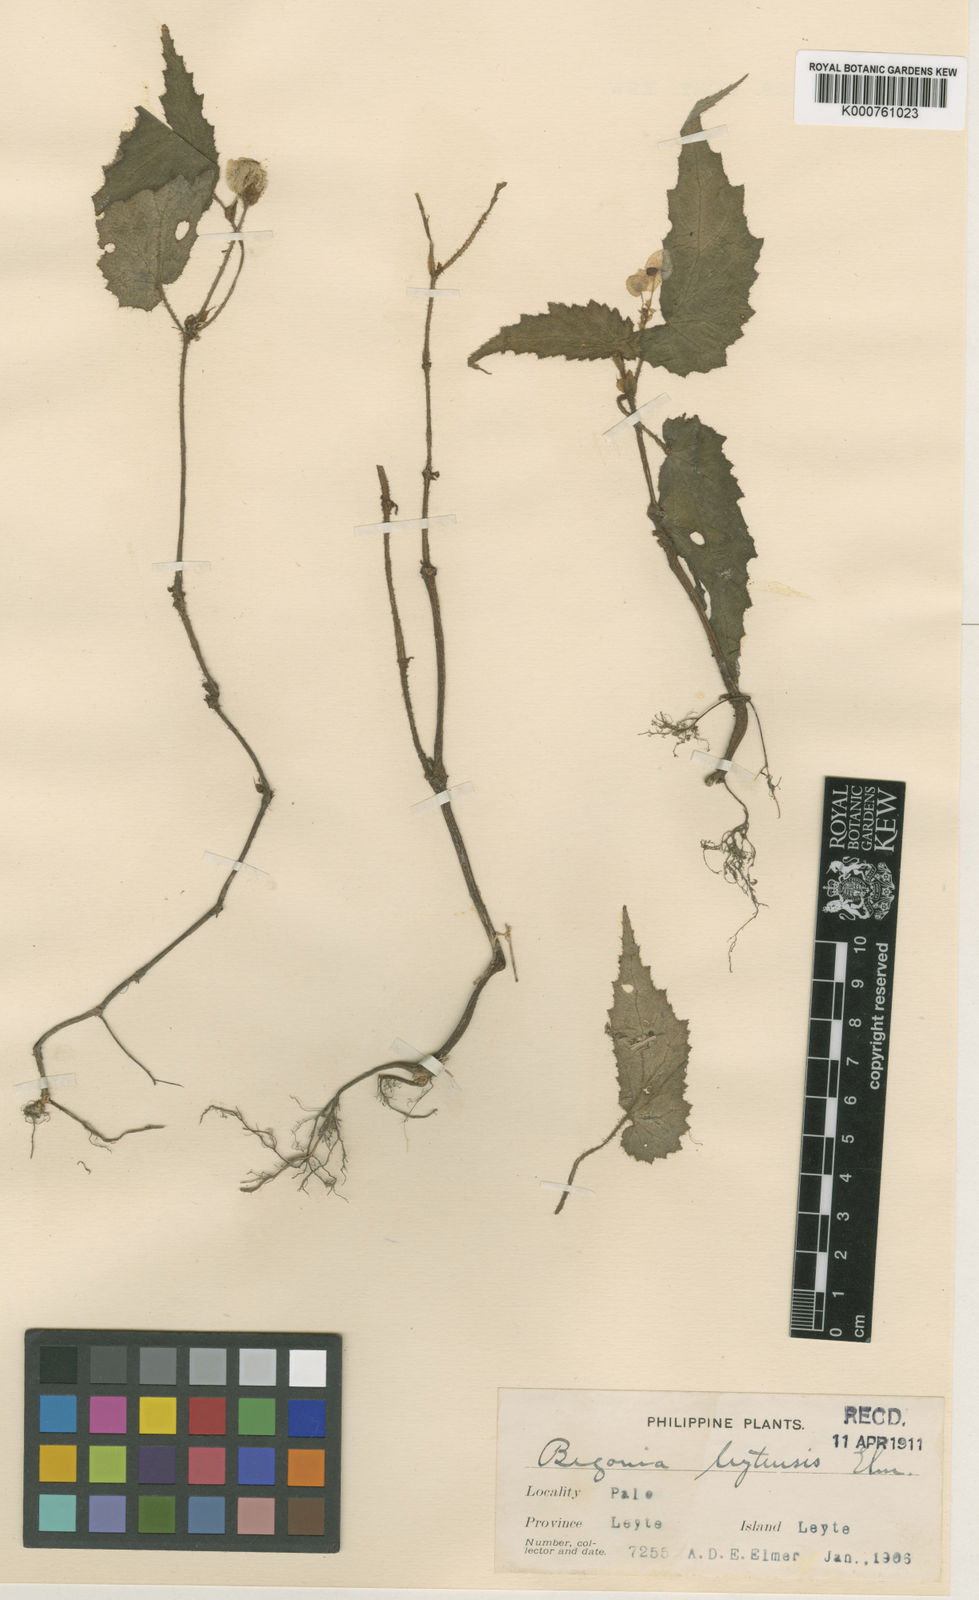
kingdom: Plantae
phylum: Tracheophyta
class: Magnoliopsida
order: Cucurbitales
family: Begoniaceae
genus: Begonia
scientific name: Begonia wenzelii
